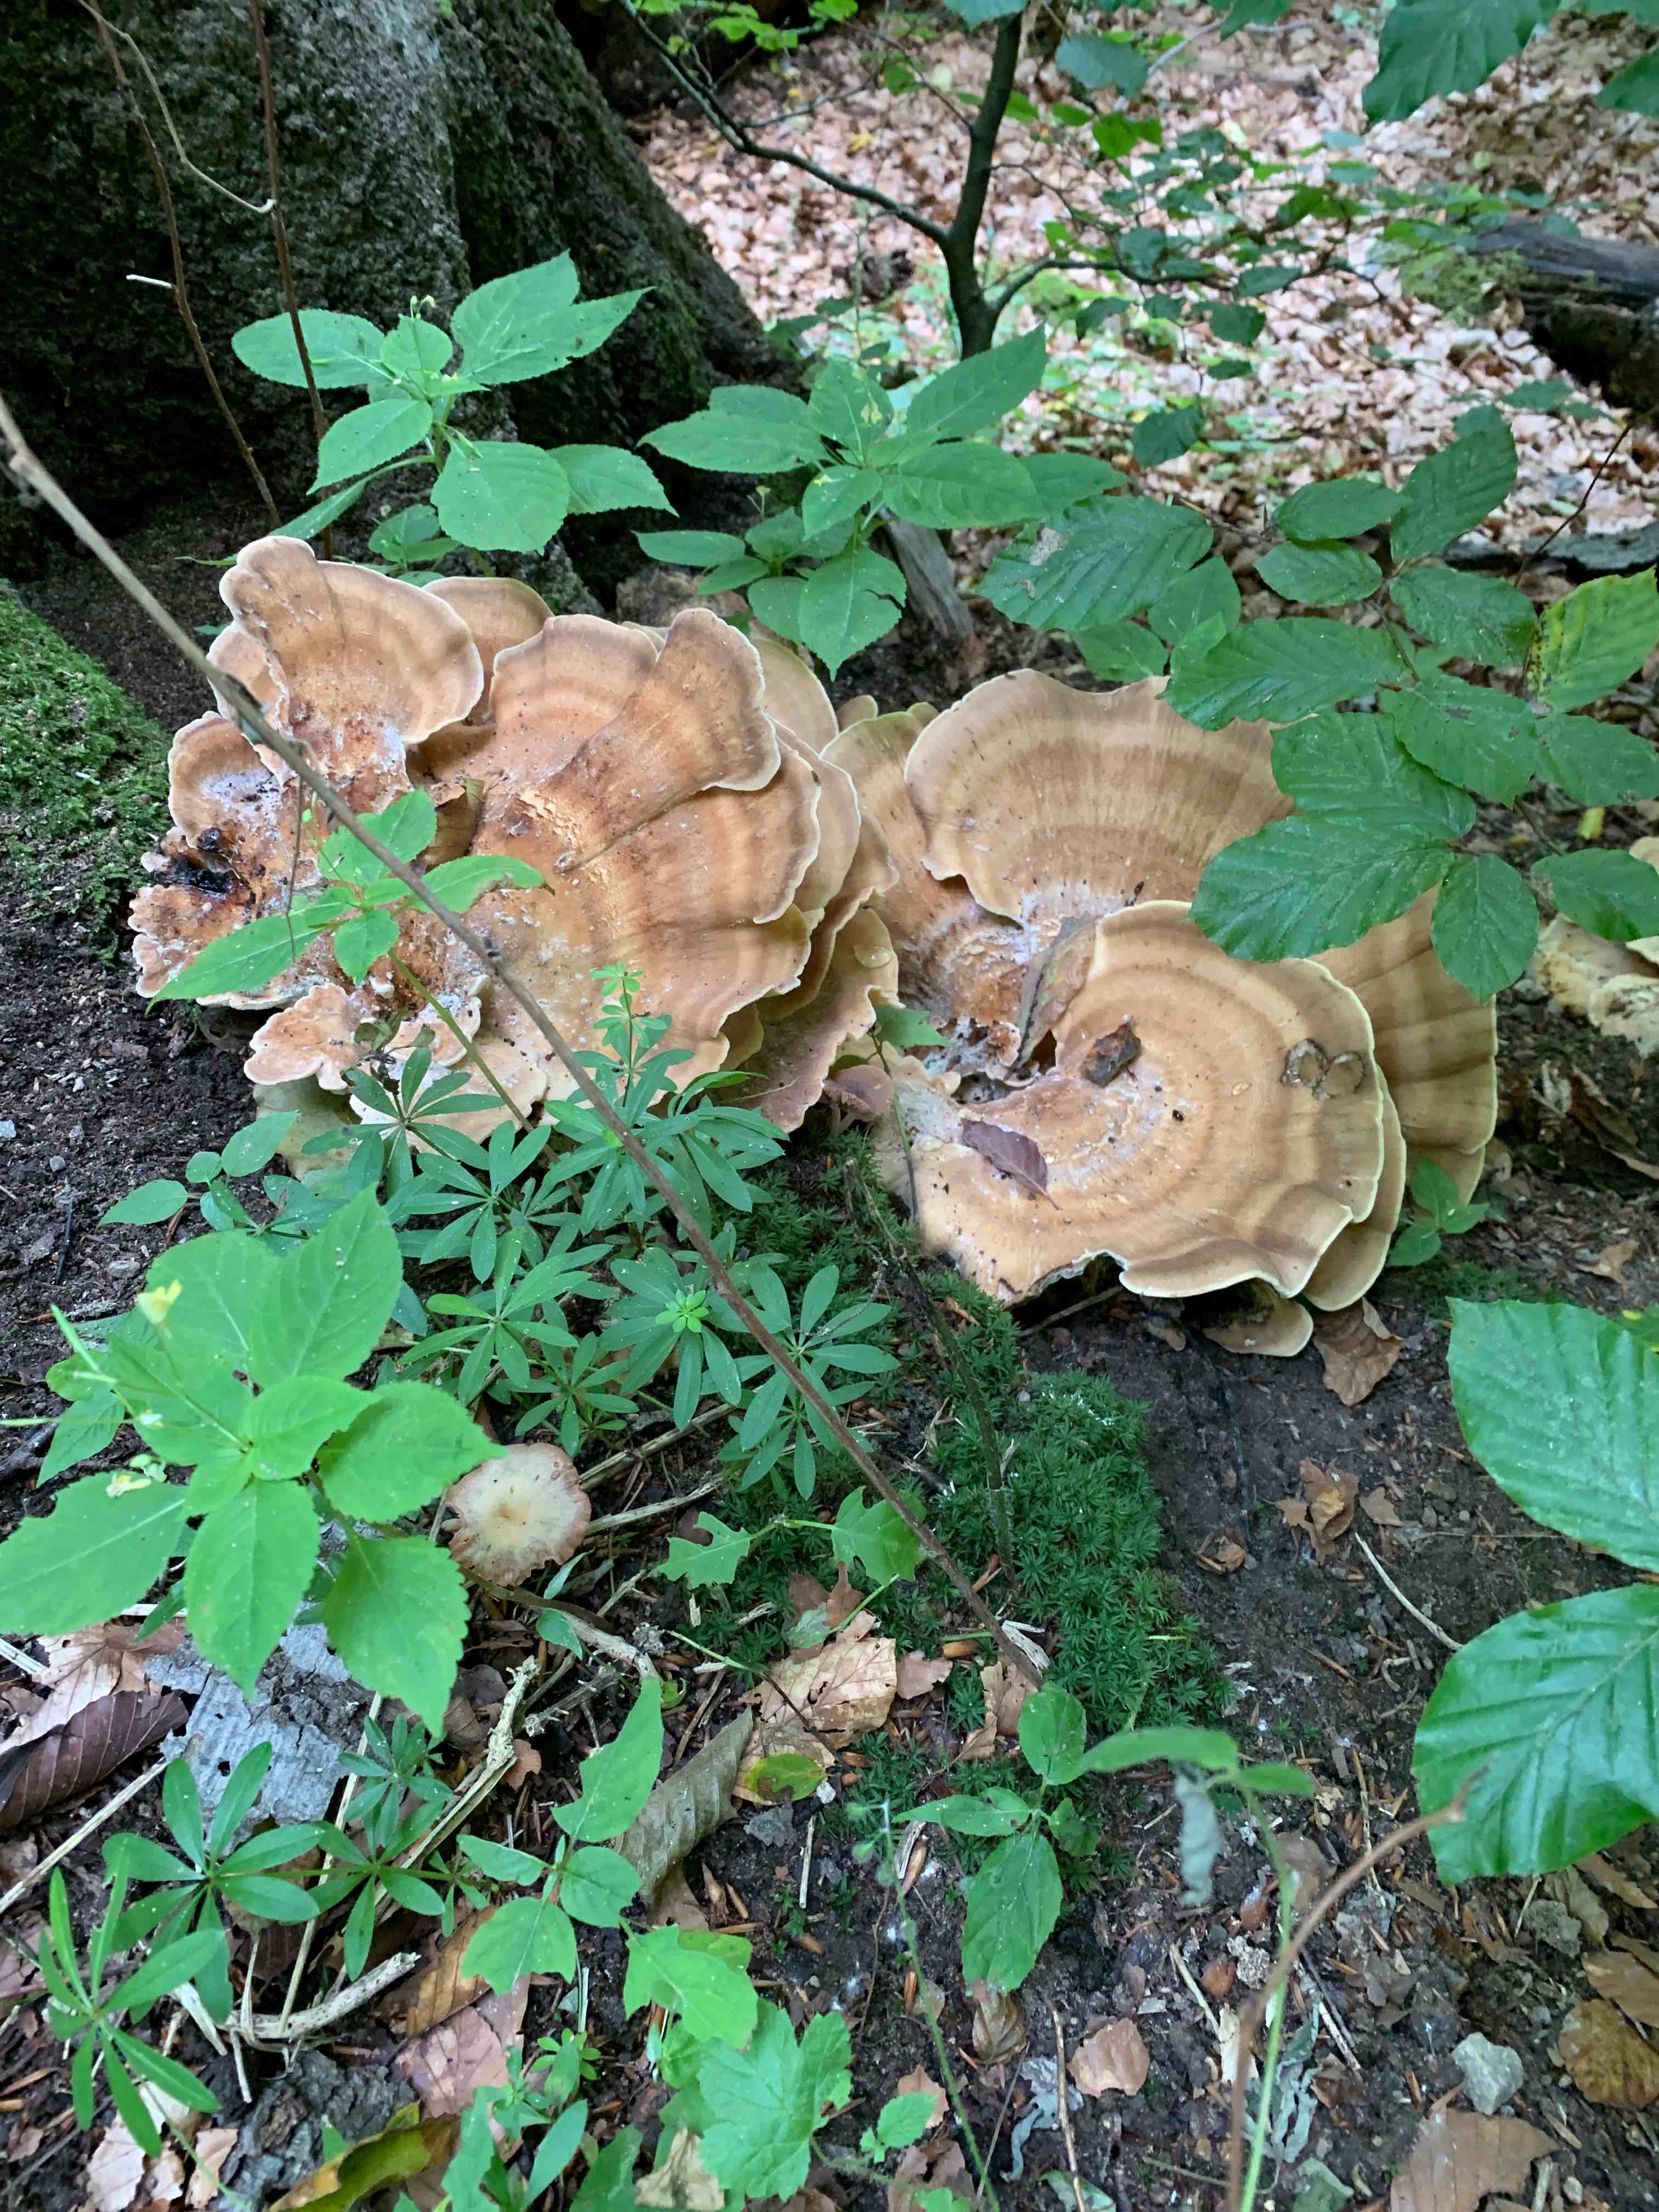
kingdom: Fungi
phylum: Basidiomycota
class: Agaricomycetes
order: Polyporales
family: Meripilaceae
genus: Meripilus
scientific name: Meripilus giganteus
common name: kæmpeporesvamp
